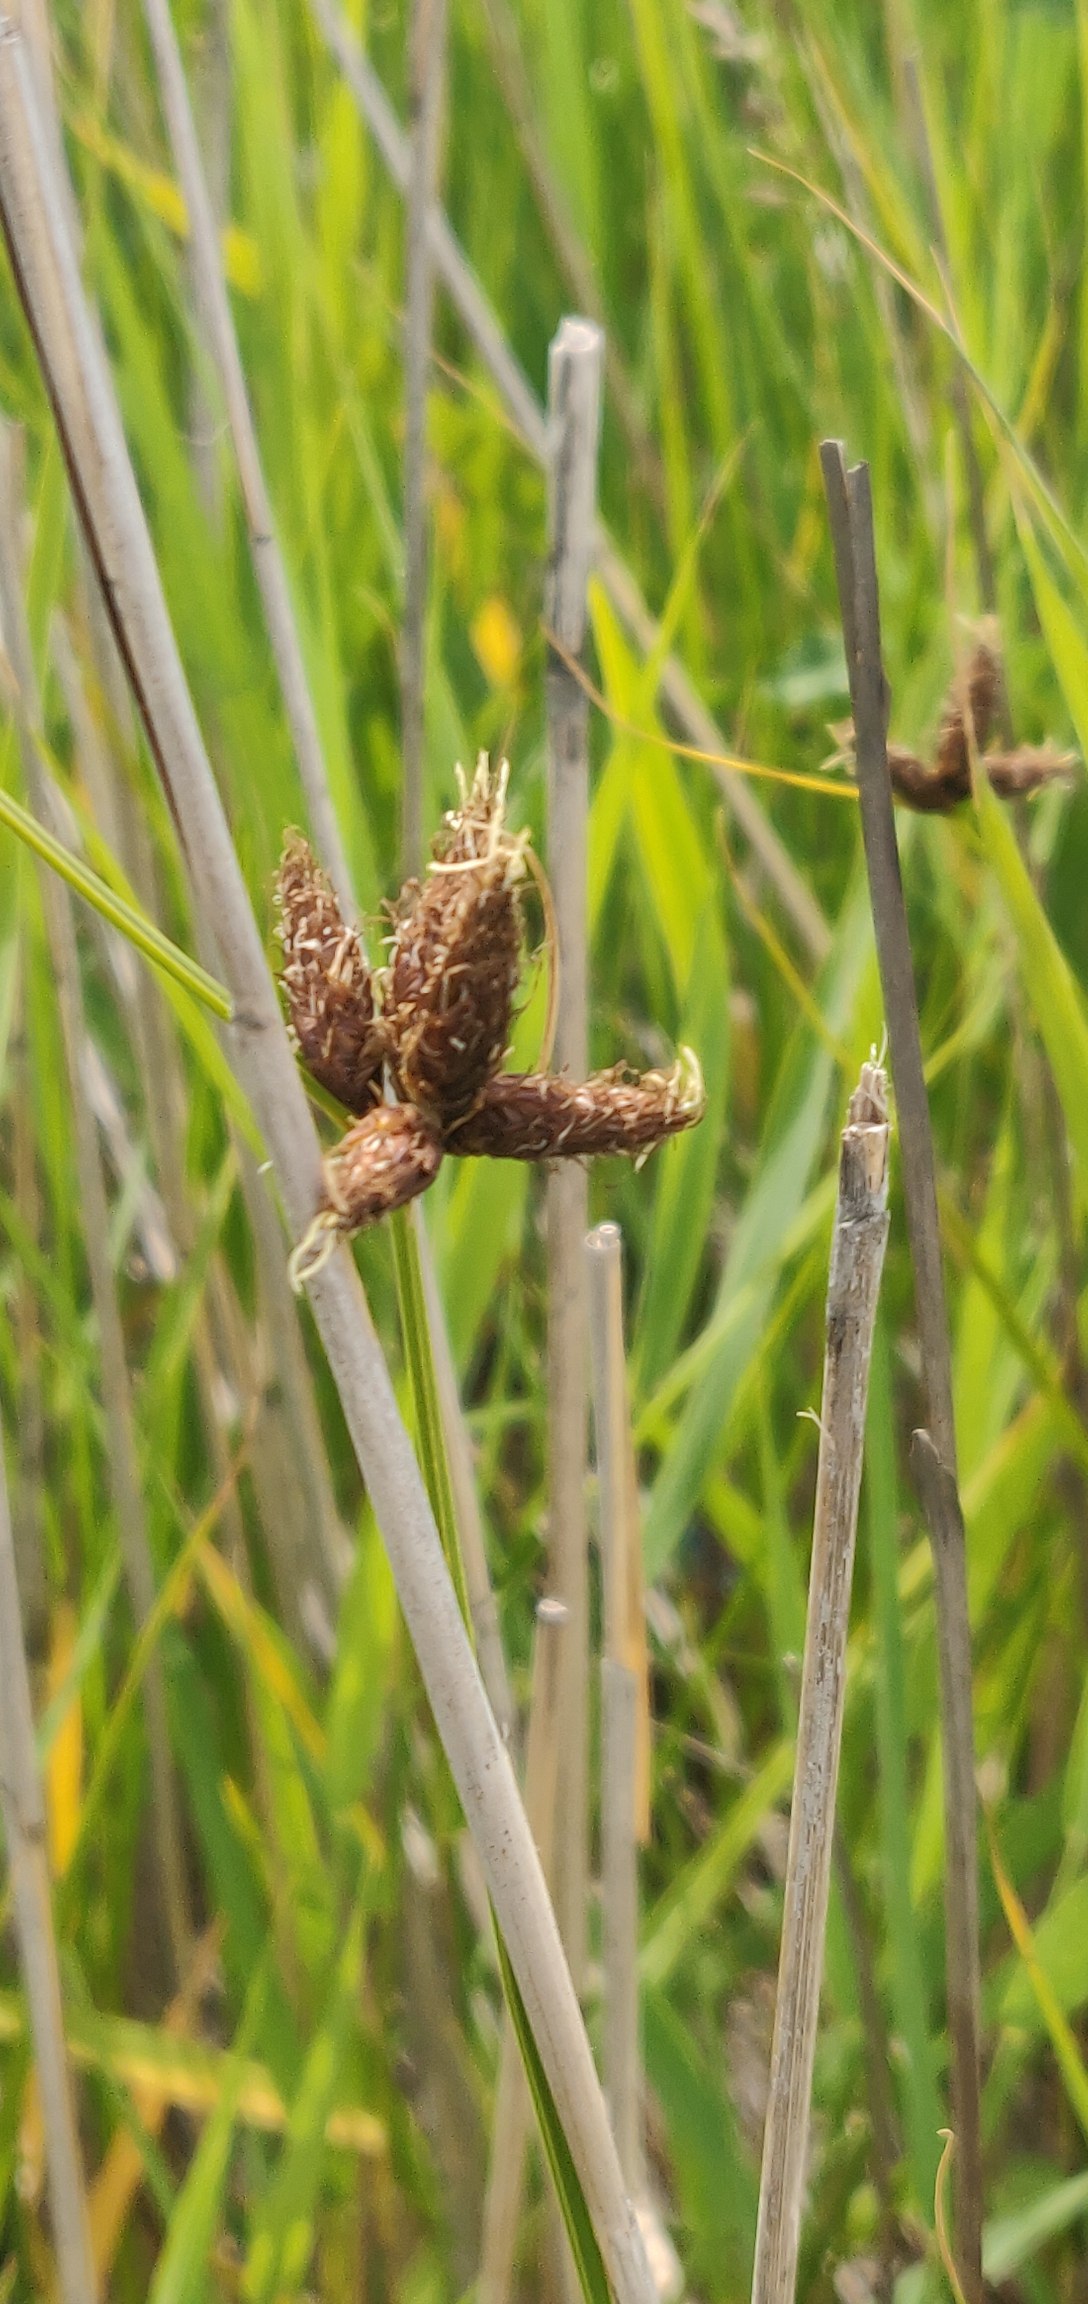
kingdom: Plantae
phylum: Tracheophyta
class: Liliopsida
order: Poales
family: Cyperaceae
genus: Bolboschoenus
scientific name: Bolboschoenus maritimus
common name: Strand-kogleaks
